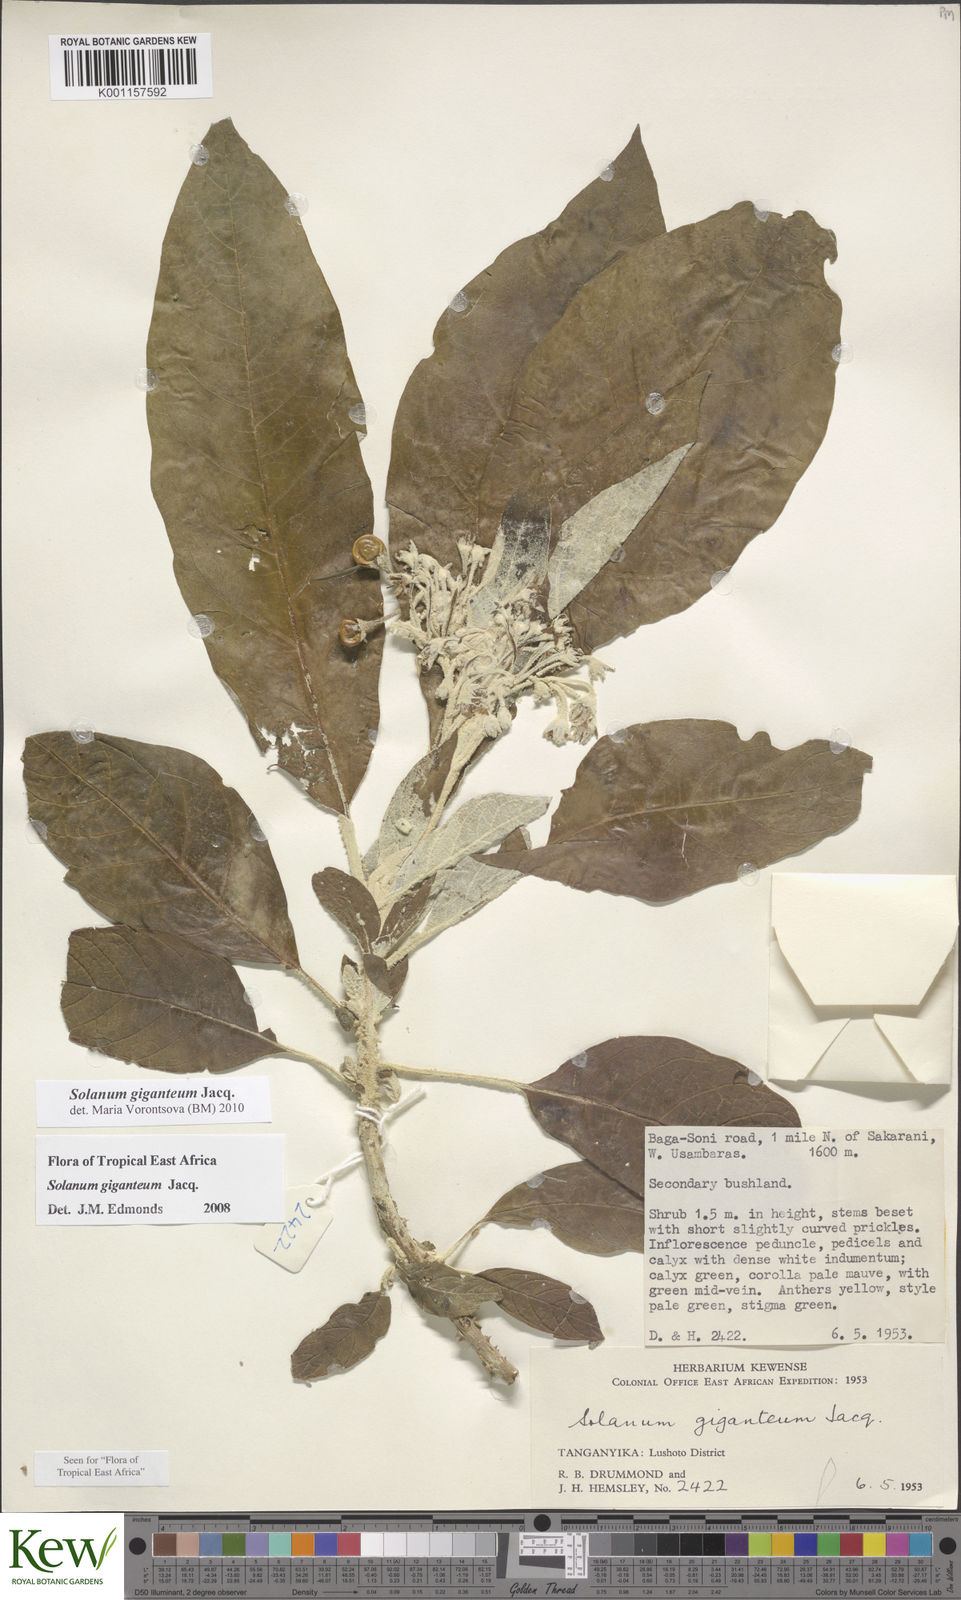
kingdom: Plantae
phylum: Tracheophyta
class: Magnoliopsida
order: Solanales
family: Solanaceae
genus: Solanum
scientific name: Solanum giganteum
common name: Healing-leaf-tree
